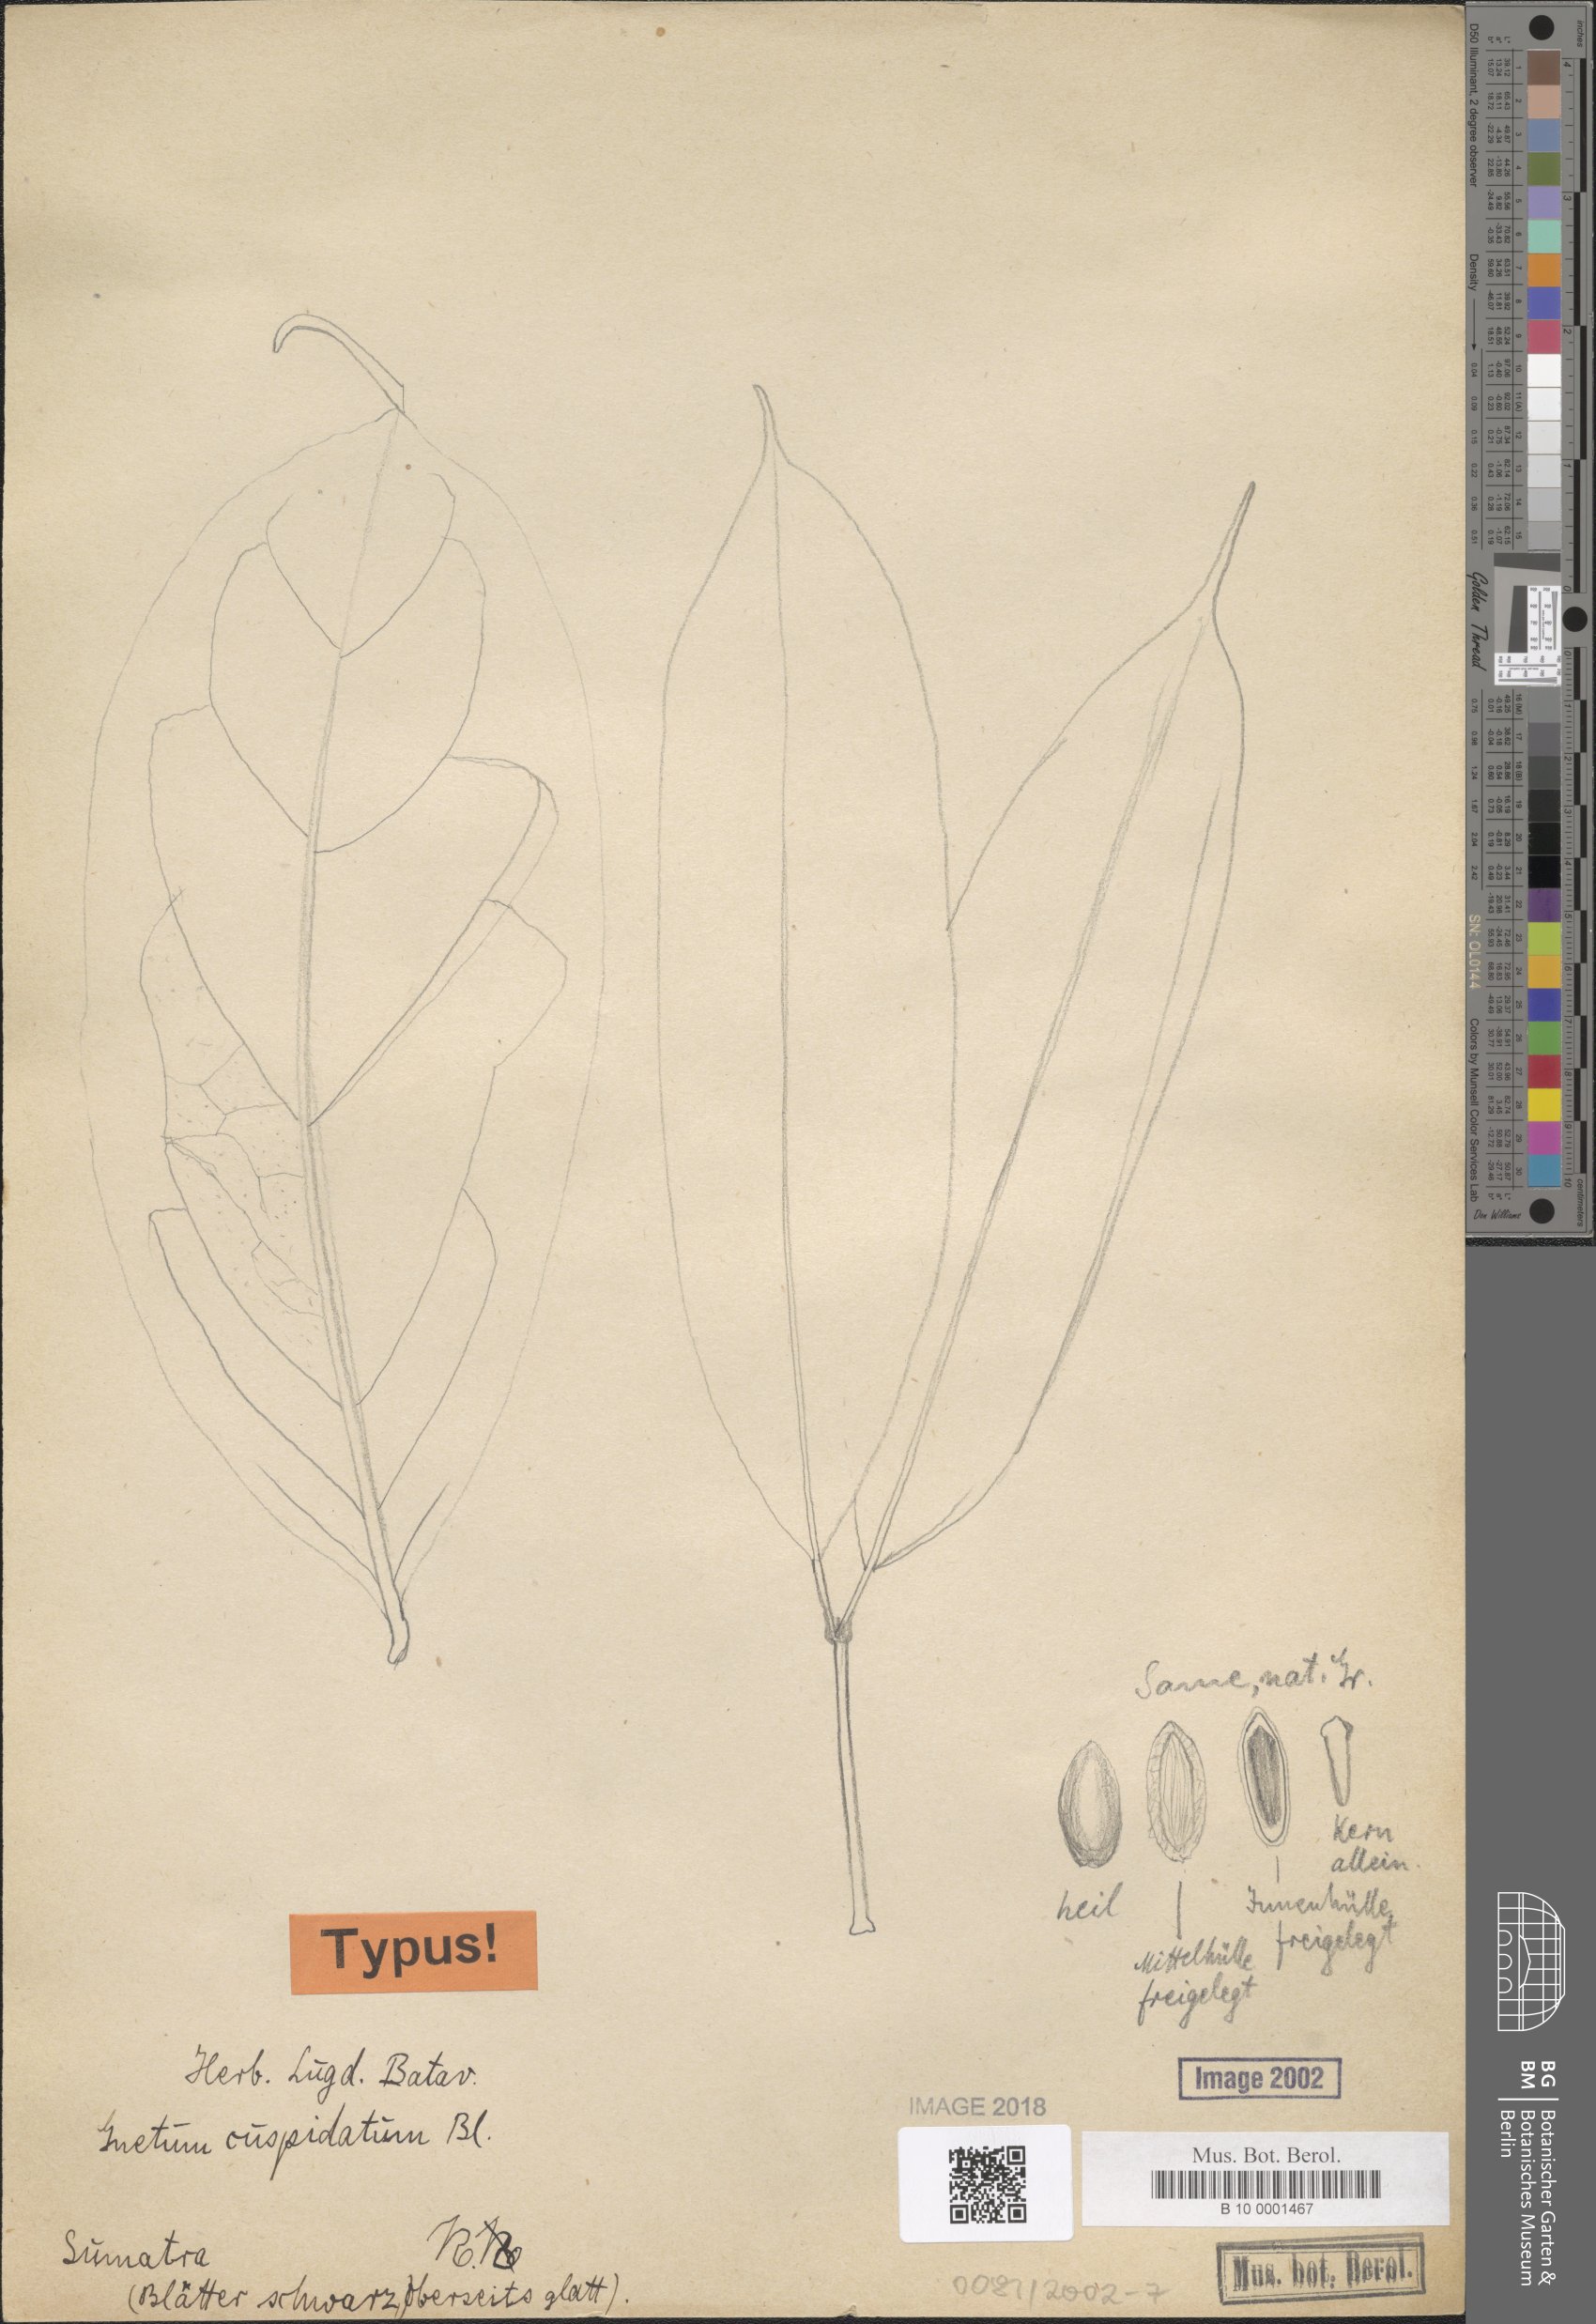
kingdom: Plantae
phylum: Tracheophyta
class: Gnetopsida
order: Gnetales
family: Gnetaceae
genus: Gnetum
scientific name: Gnetum cuspidatum
